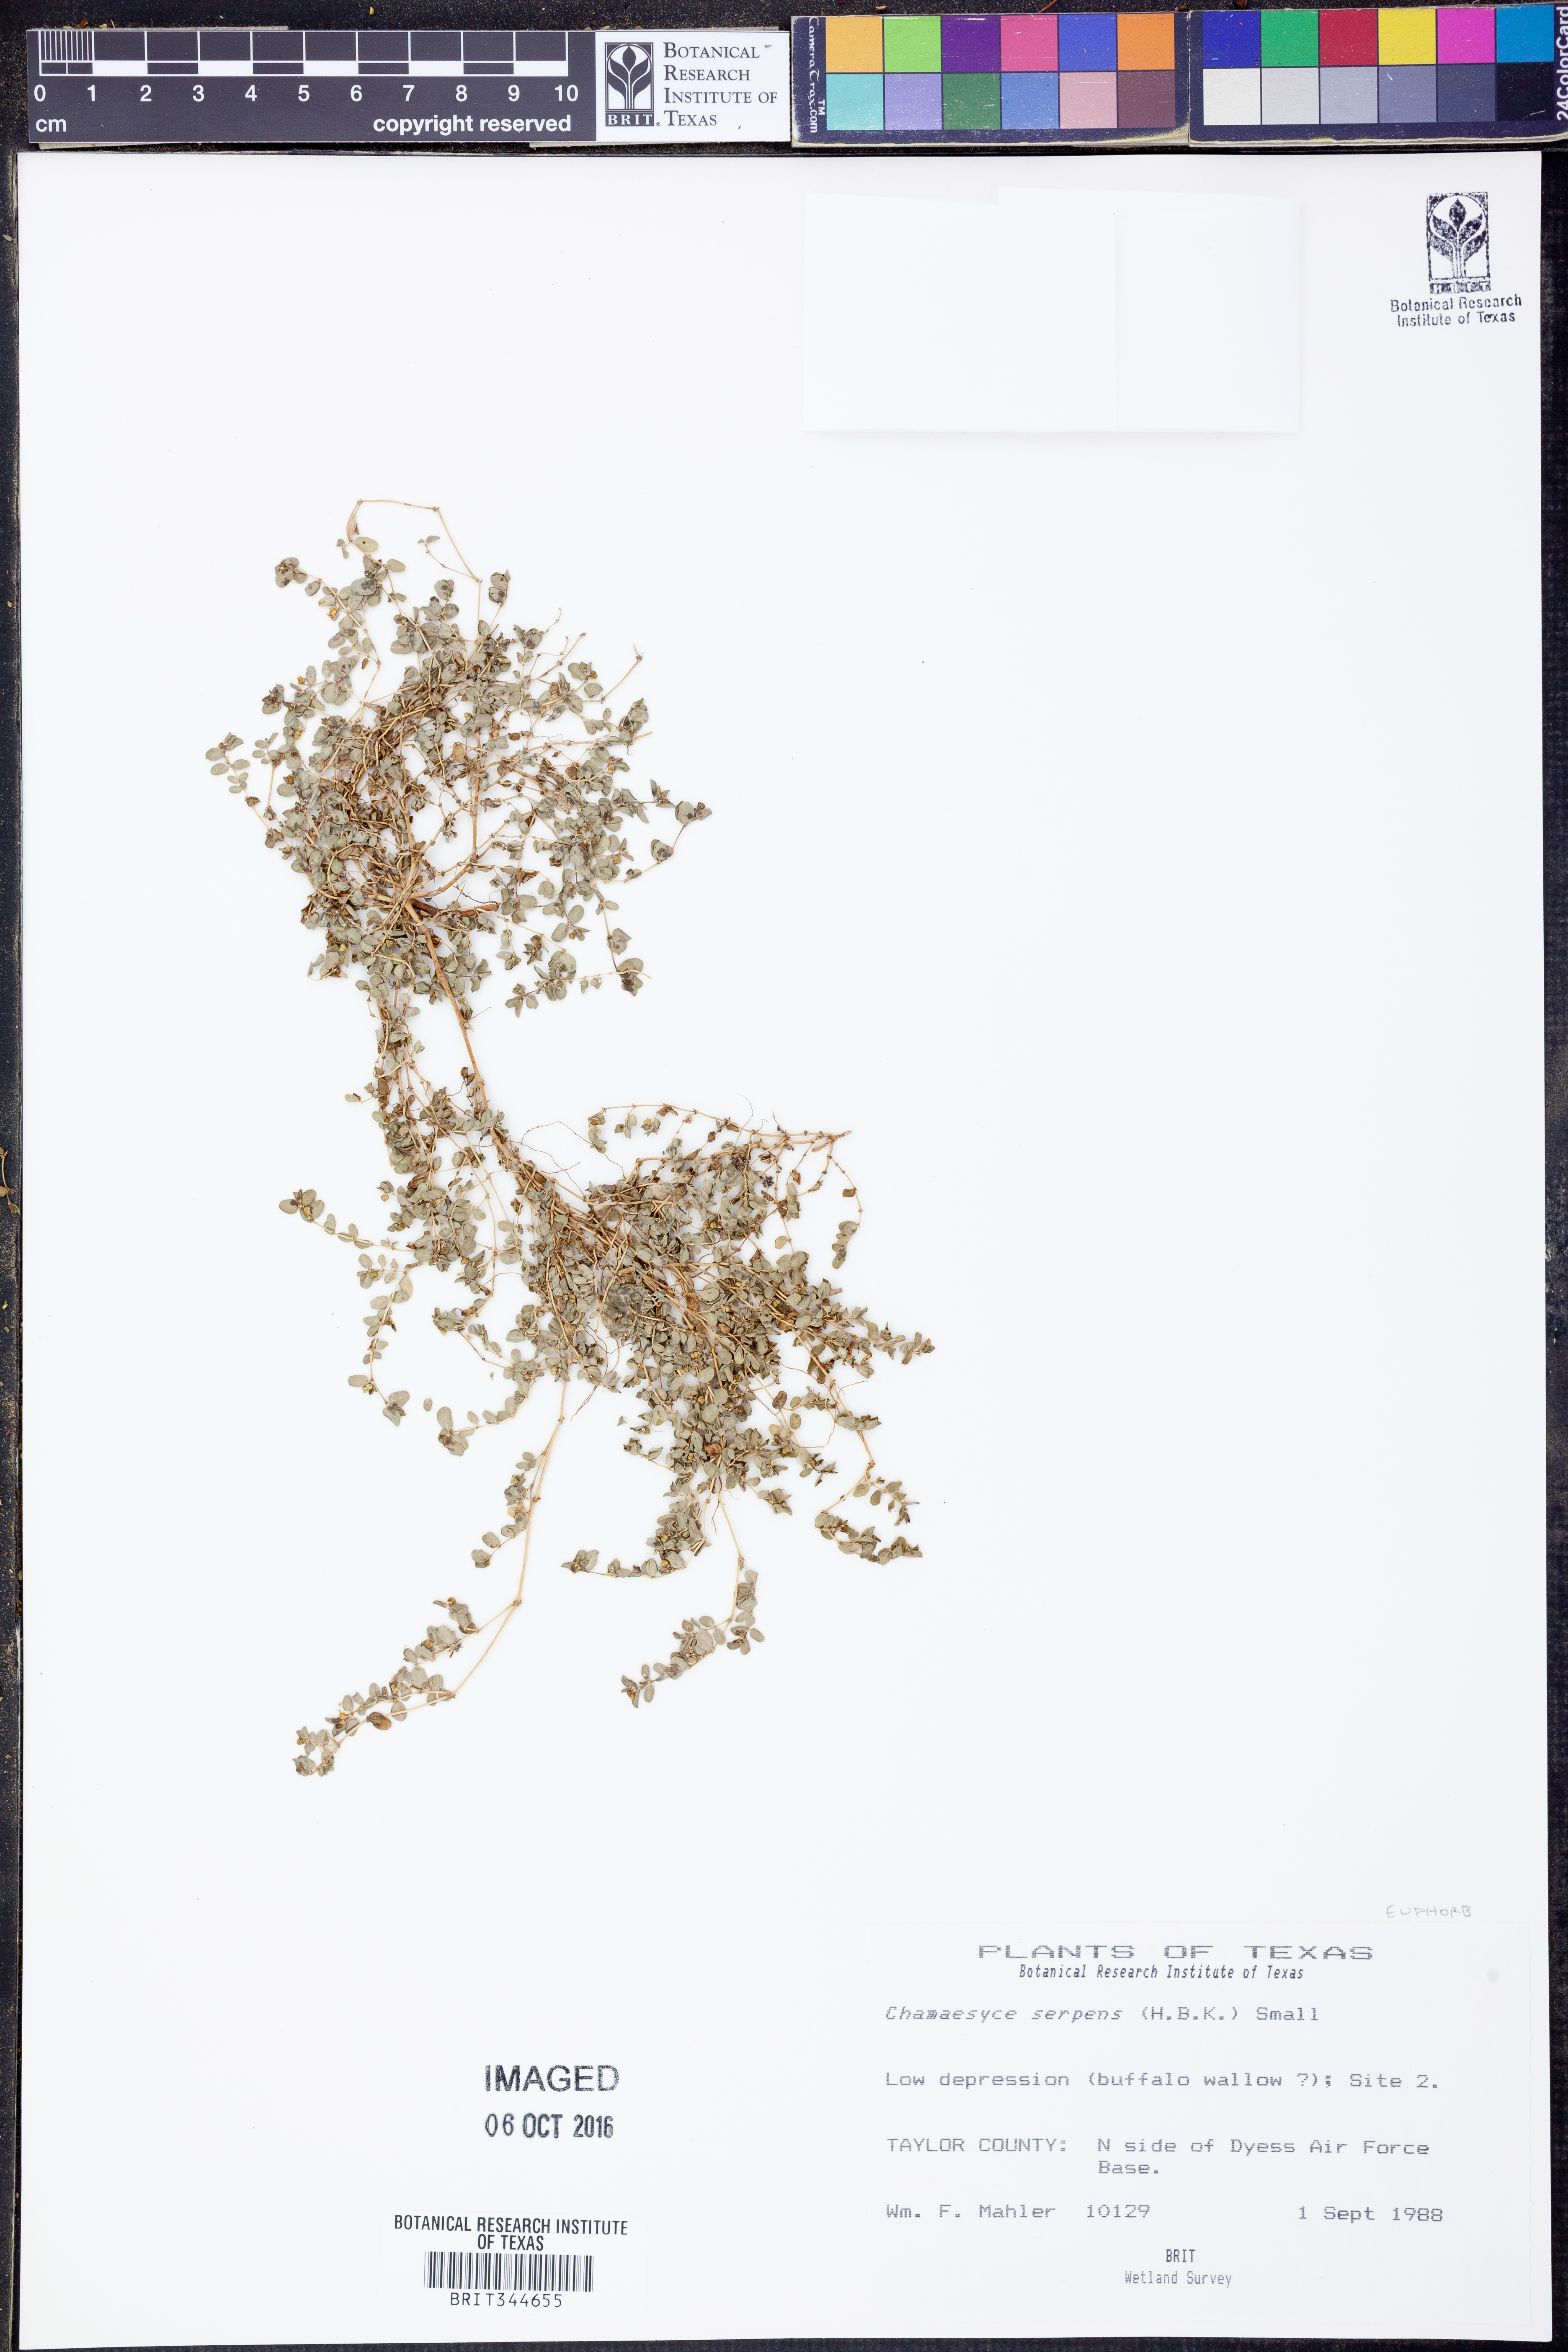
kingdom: Plantae
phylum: Tracheophyta
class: Magnoliopsida
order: Malpighiales
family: Euphorbiaceae
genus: Euphorbia
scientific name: Euphorbia serpens
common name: Matted sandmat
